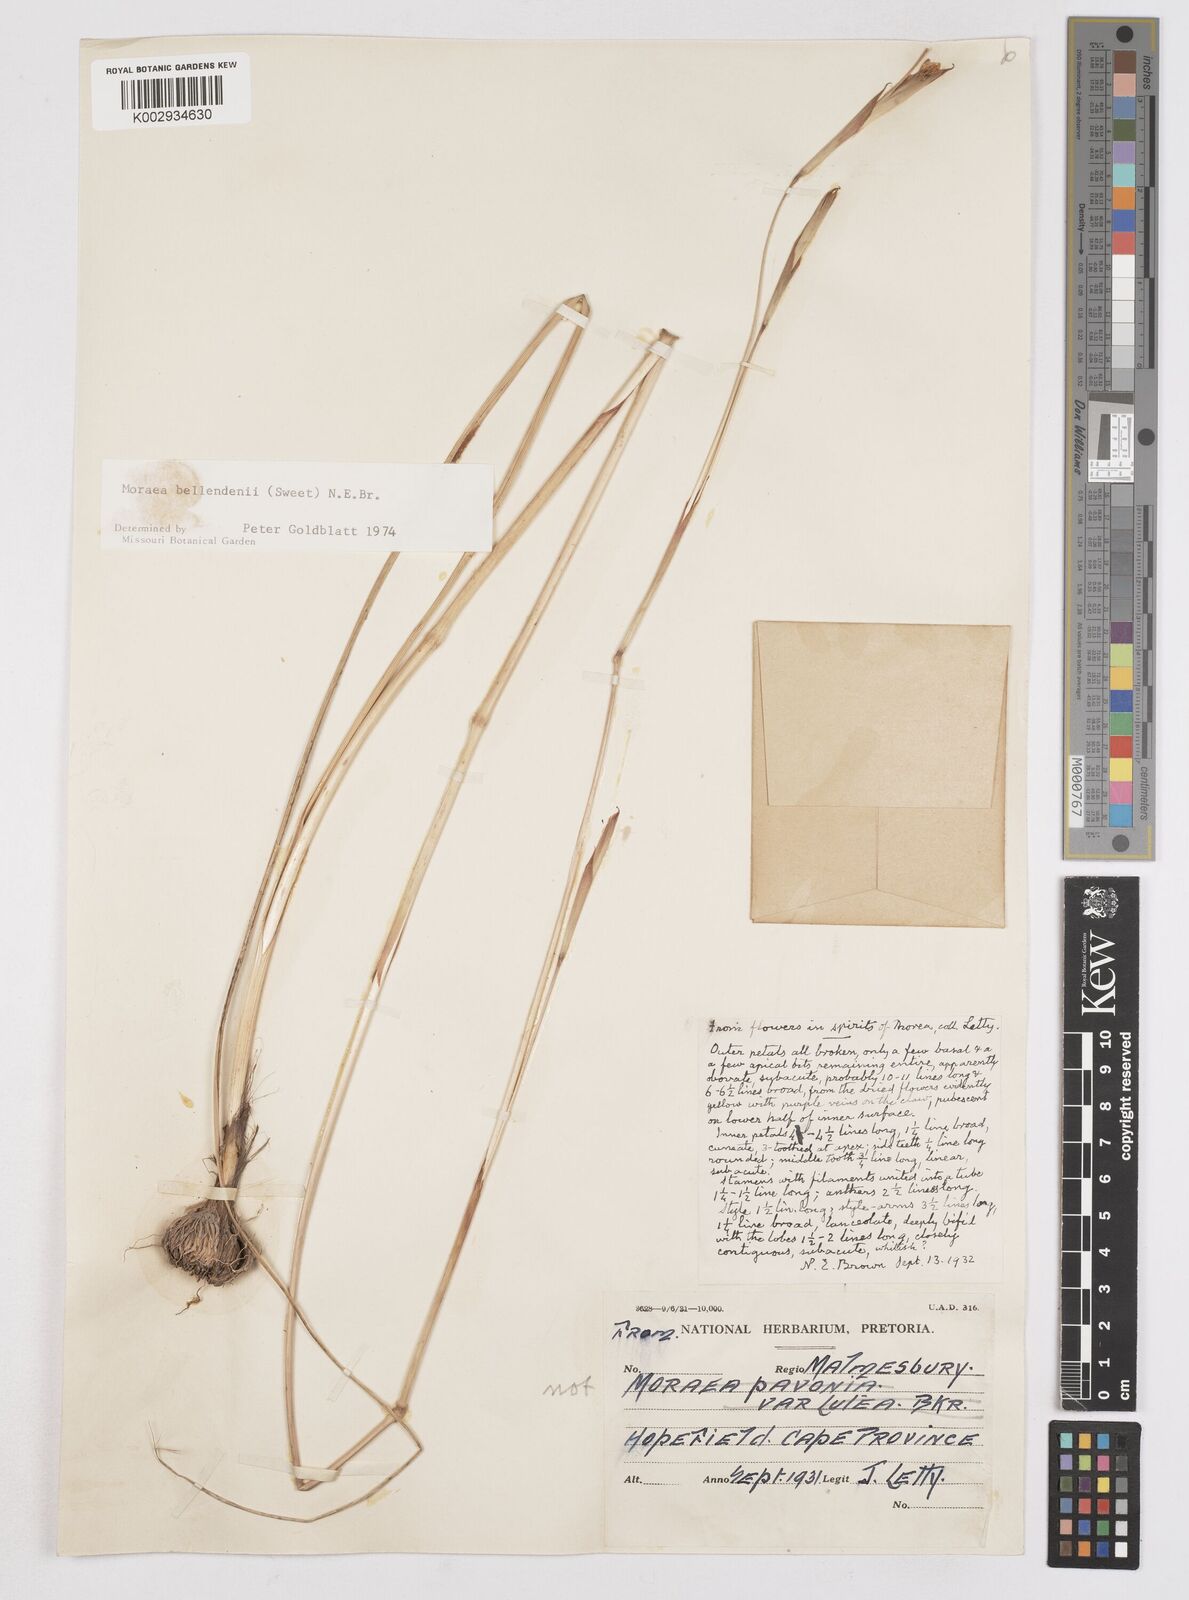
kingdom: Plantae
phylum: Tracheophyta
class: Liliopsida
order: Asparagales
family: Iridaceae
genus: Moraea
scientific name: Moraea bellendenii
